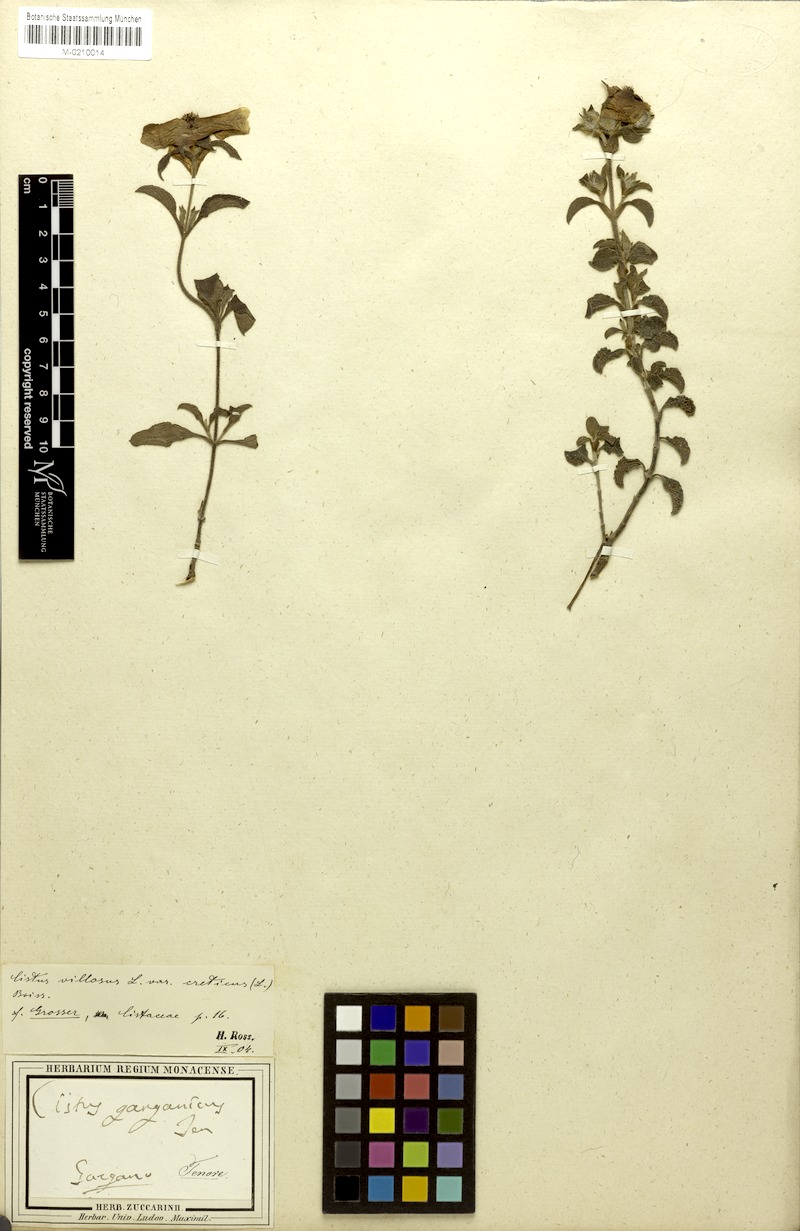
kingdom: Plantae
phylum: Tracheophyta
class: Magnoliopsida
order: Malvales
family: Cistaceae
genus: Cistus
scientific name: Cistus creticus
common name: Cretan rockrose
